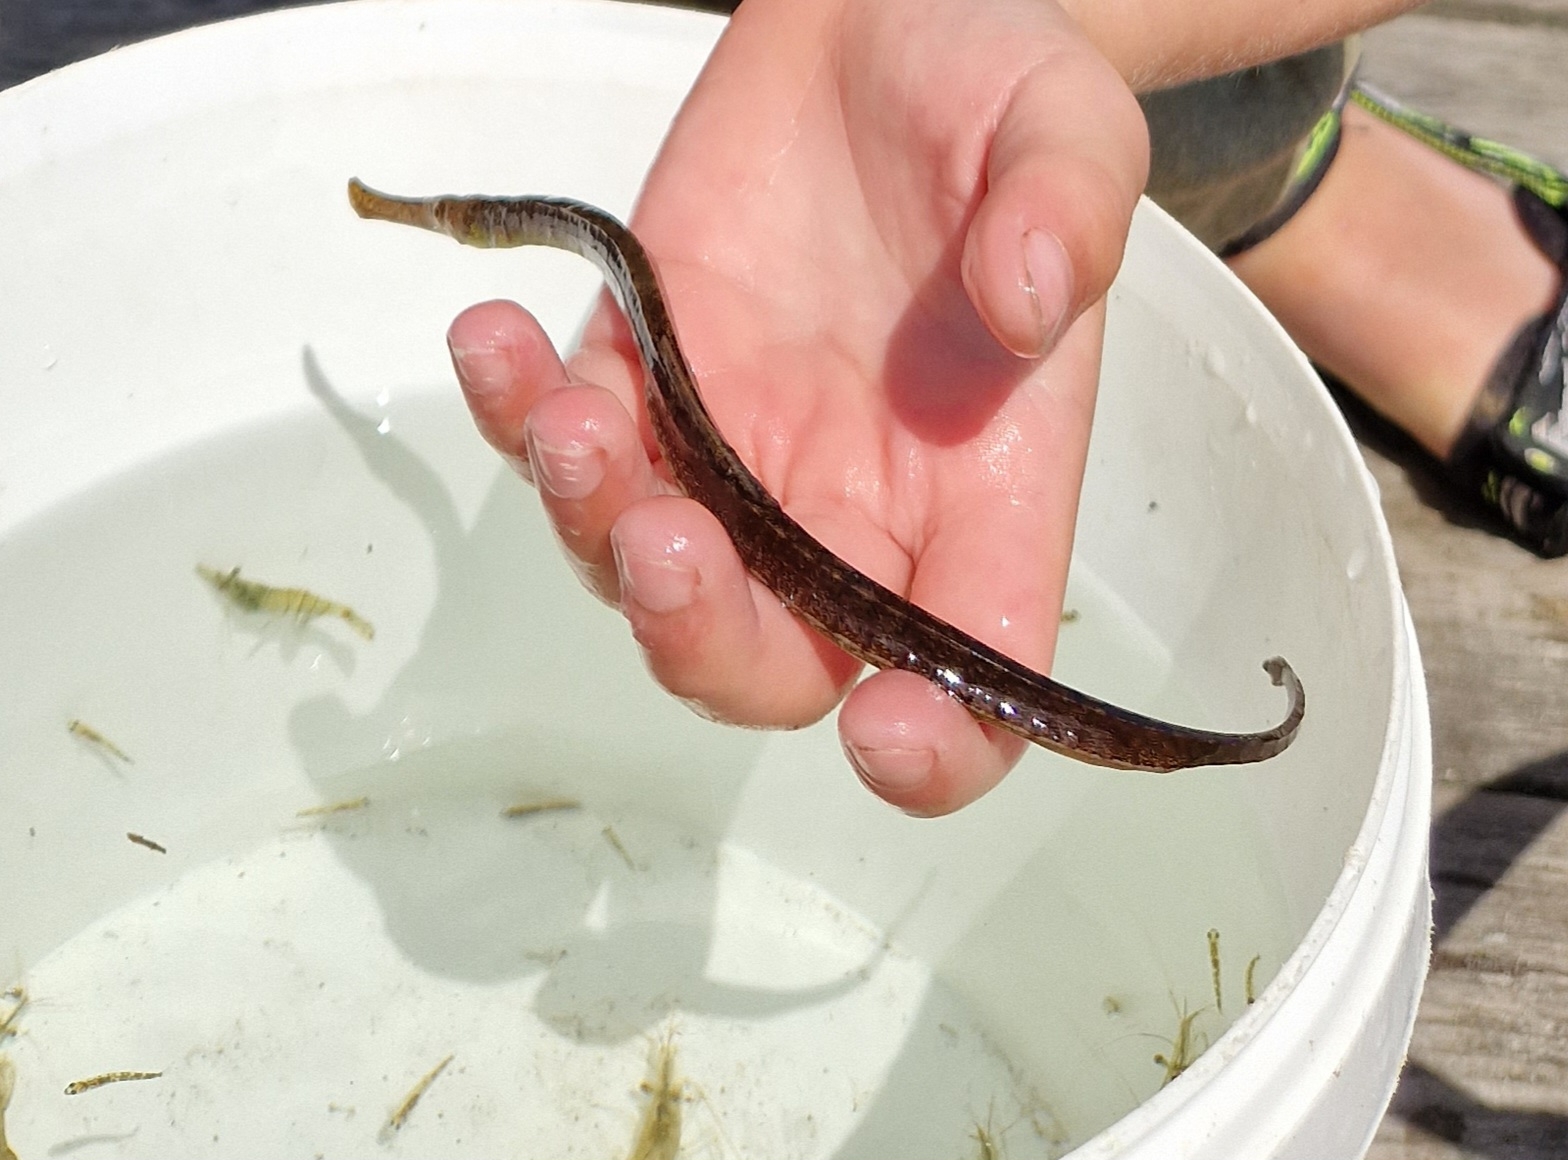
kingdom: Animalia
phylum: Chordata
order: Syngnathiformes
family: Syngnathidae
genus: Syngnathus
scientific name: Syngnathus typhle
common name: Almindelig tangnål
